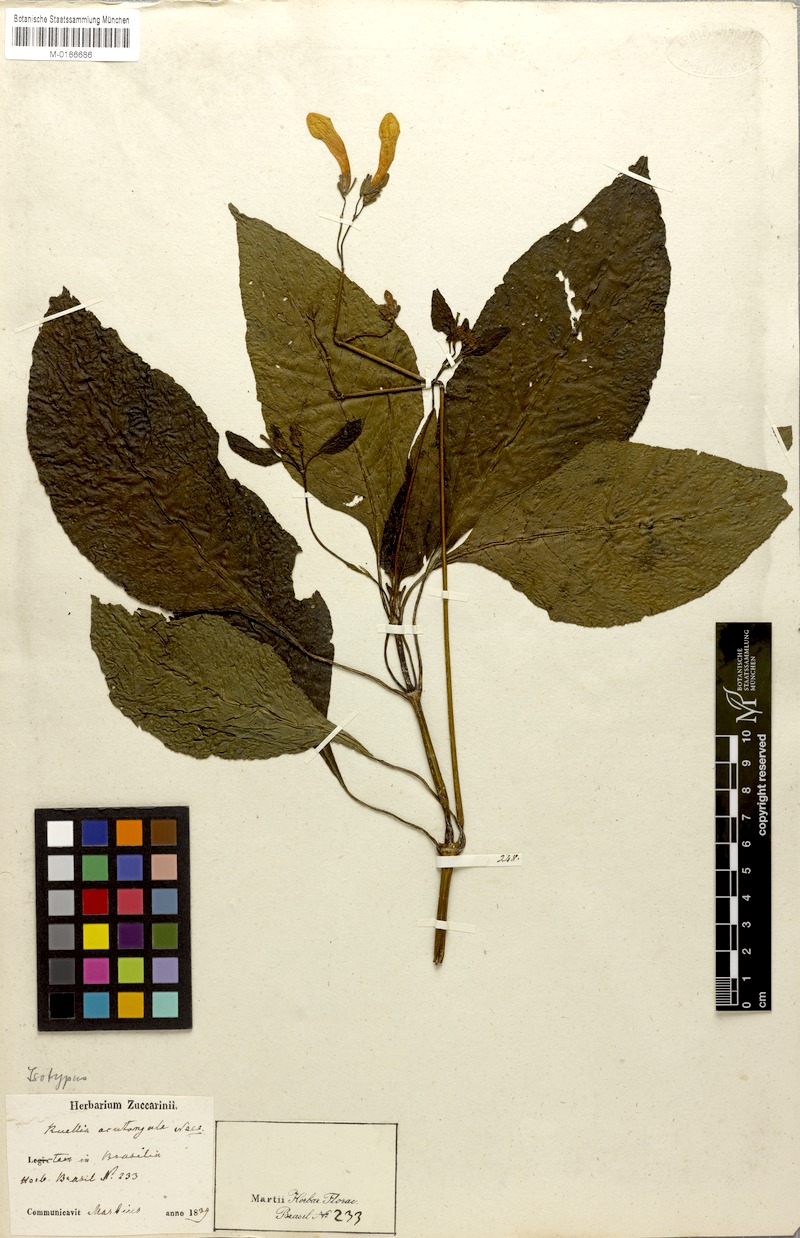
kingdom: Plantae
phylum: Tracheophyta
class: Magnoliopsida
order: Lamiales
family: Acanthaceae
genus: Ruellia
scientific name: Ruellia acutangula
